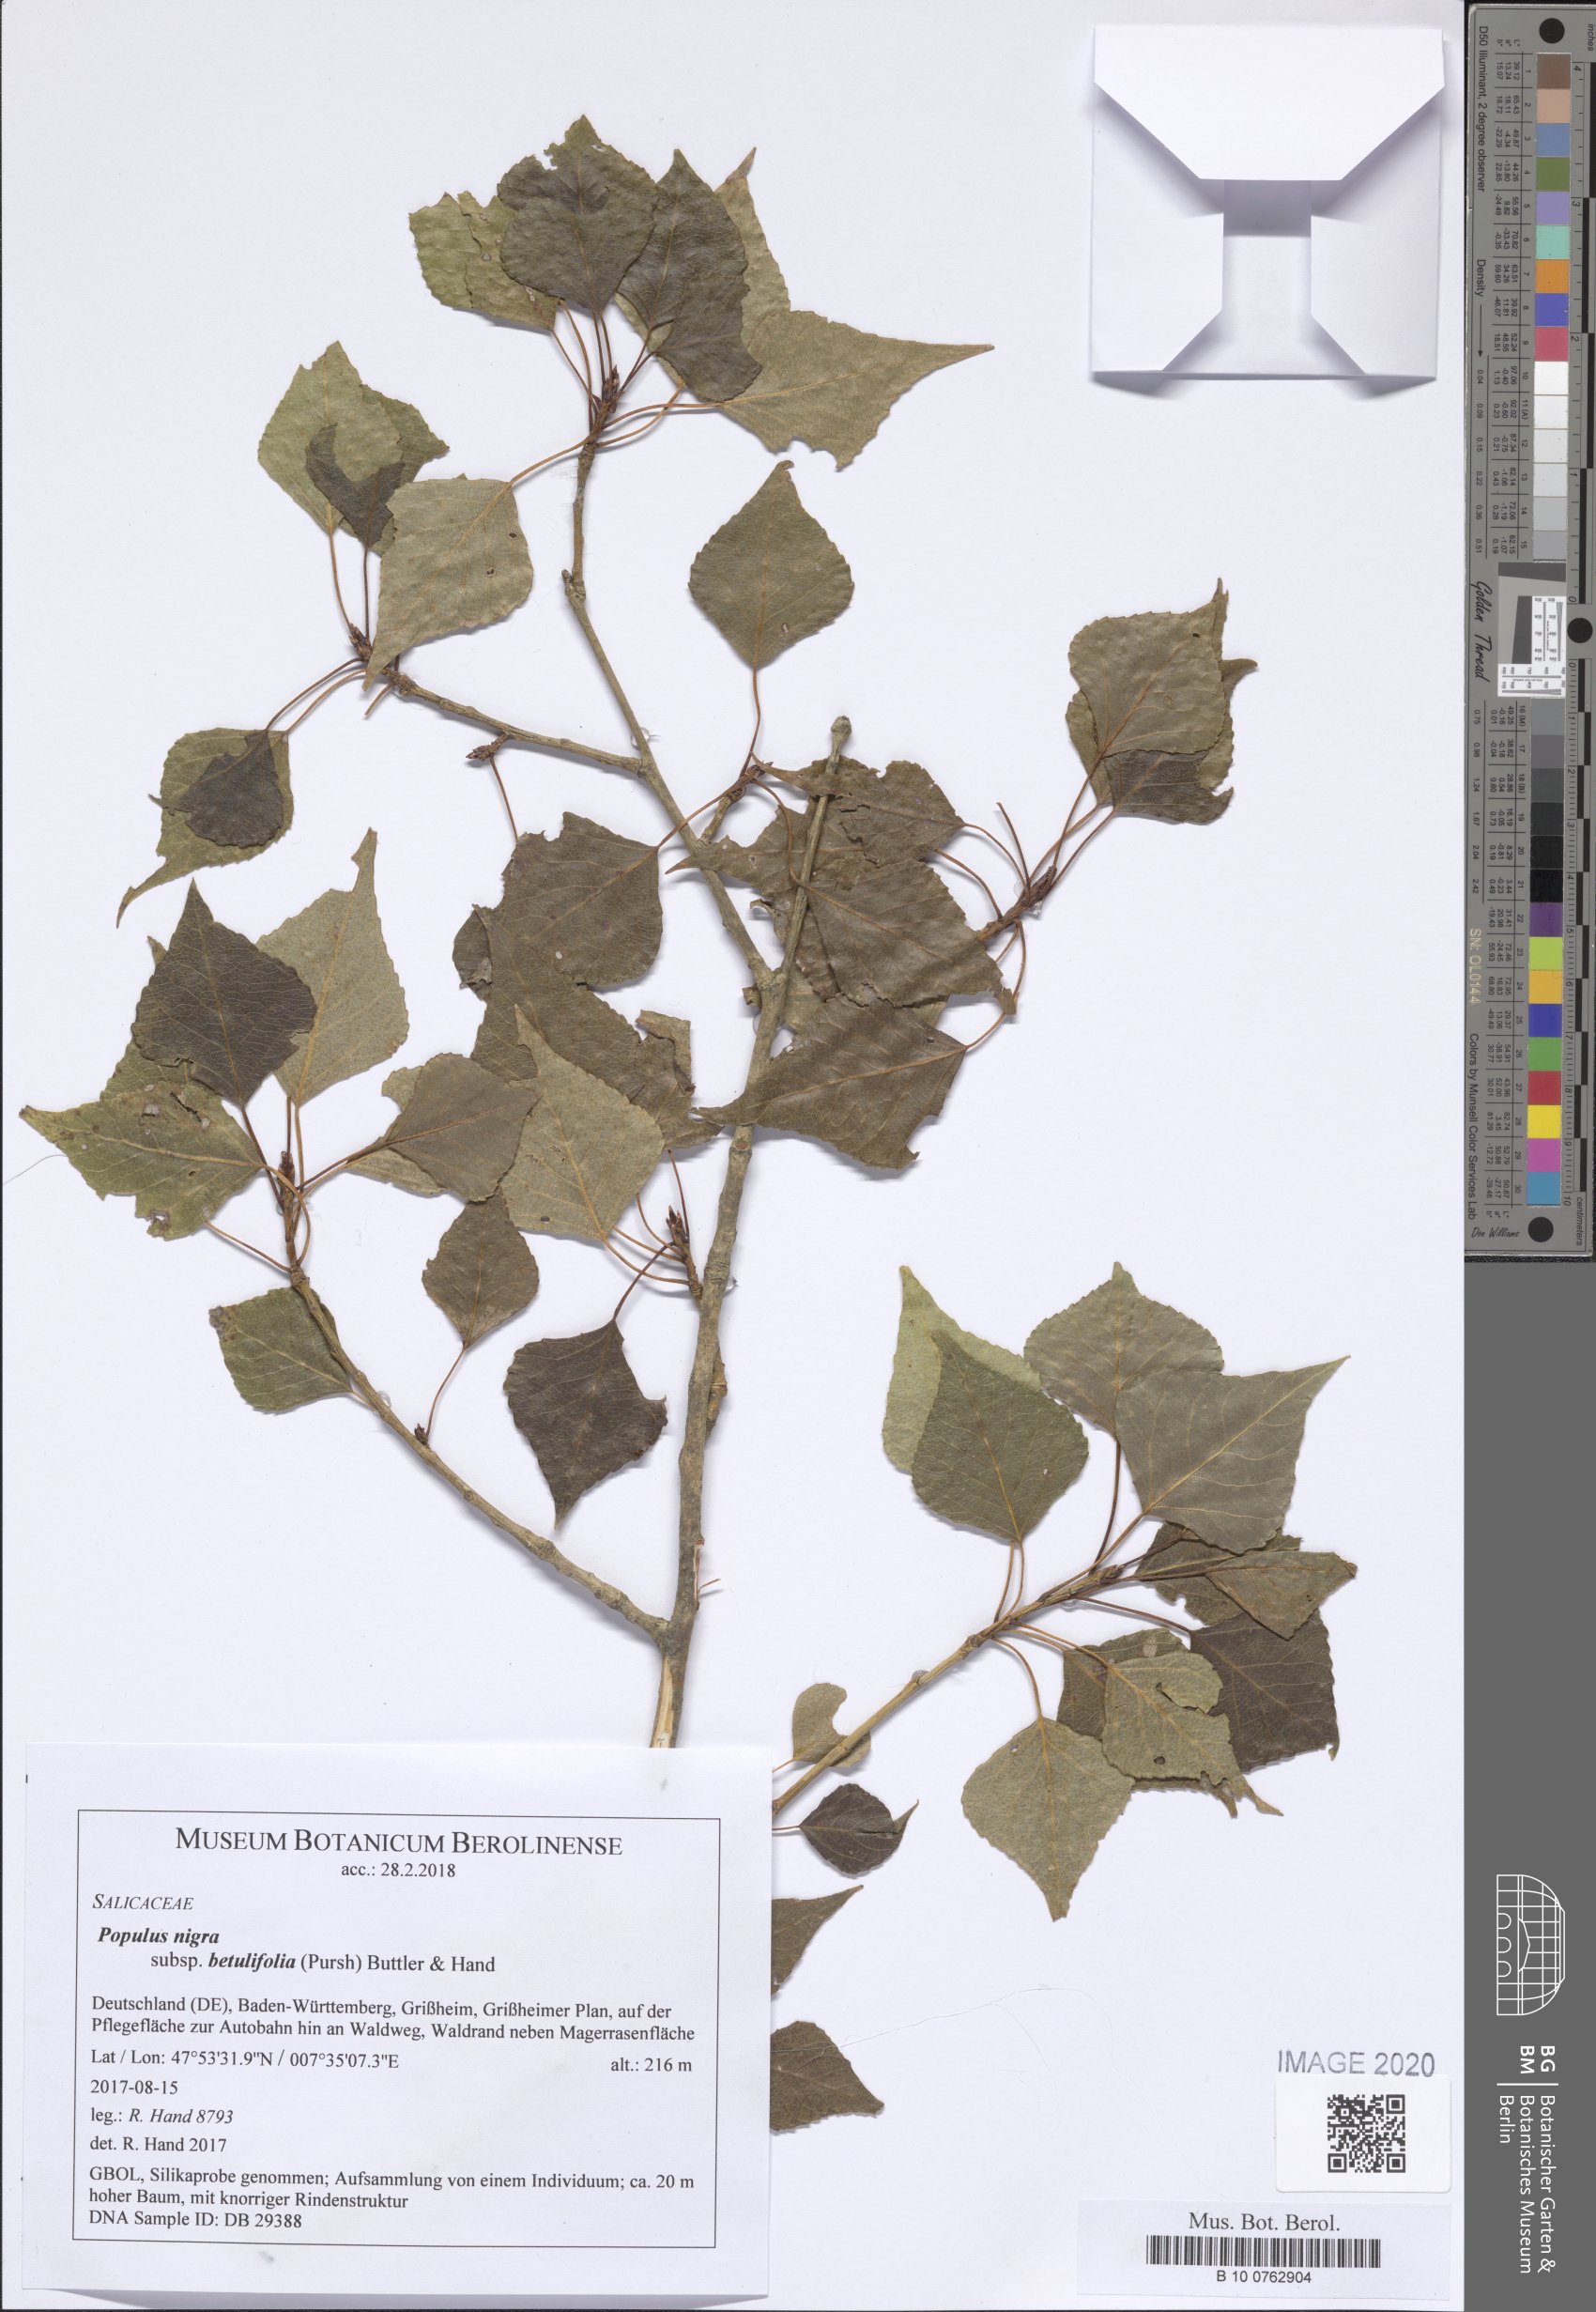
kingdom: Plantae
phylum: Tracheophyta
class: Magnoliopsida
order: Malpighiales
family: Salicaceae
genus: Populus
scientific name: Populus nigra
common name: Black poplar
